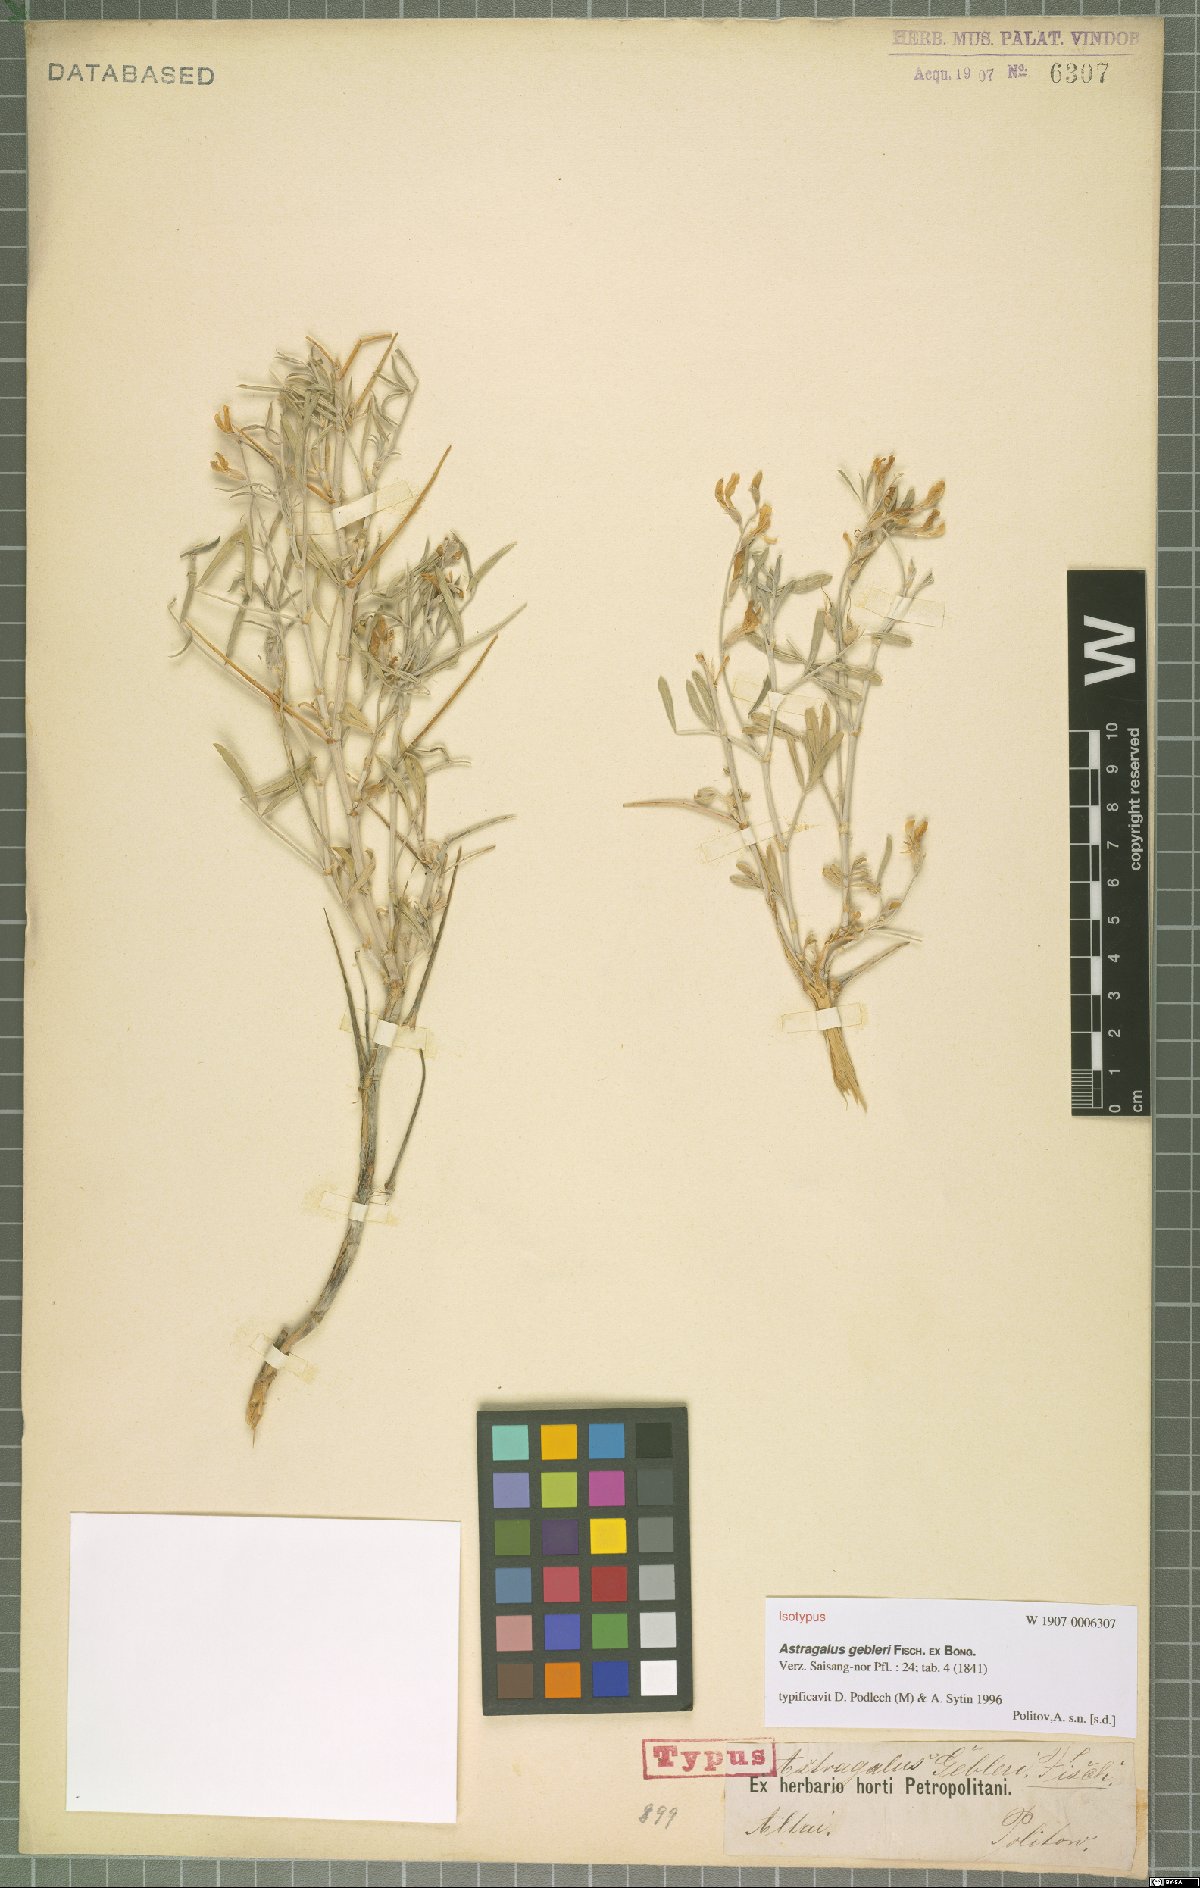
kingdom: Plantae
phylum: Tracheophyta
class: Magnoliopsida
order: Fabales
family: Fabaceae
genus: Astragalus
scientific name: Astragalus gebleri
